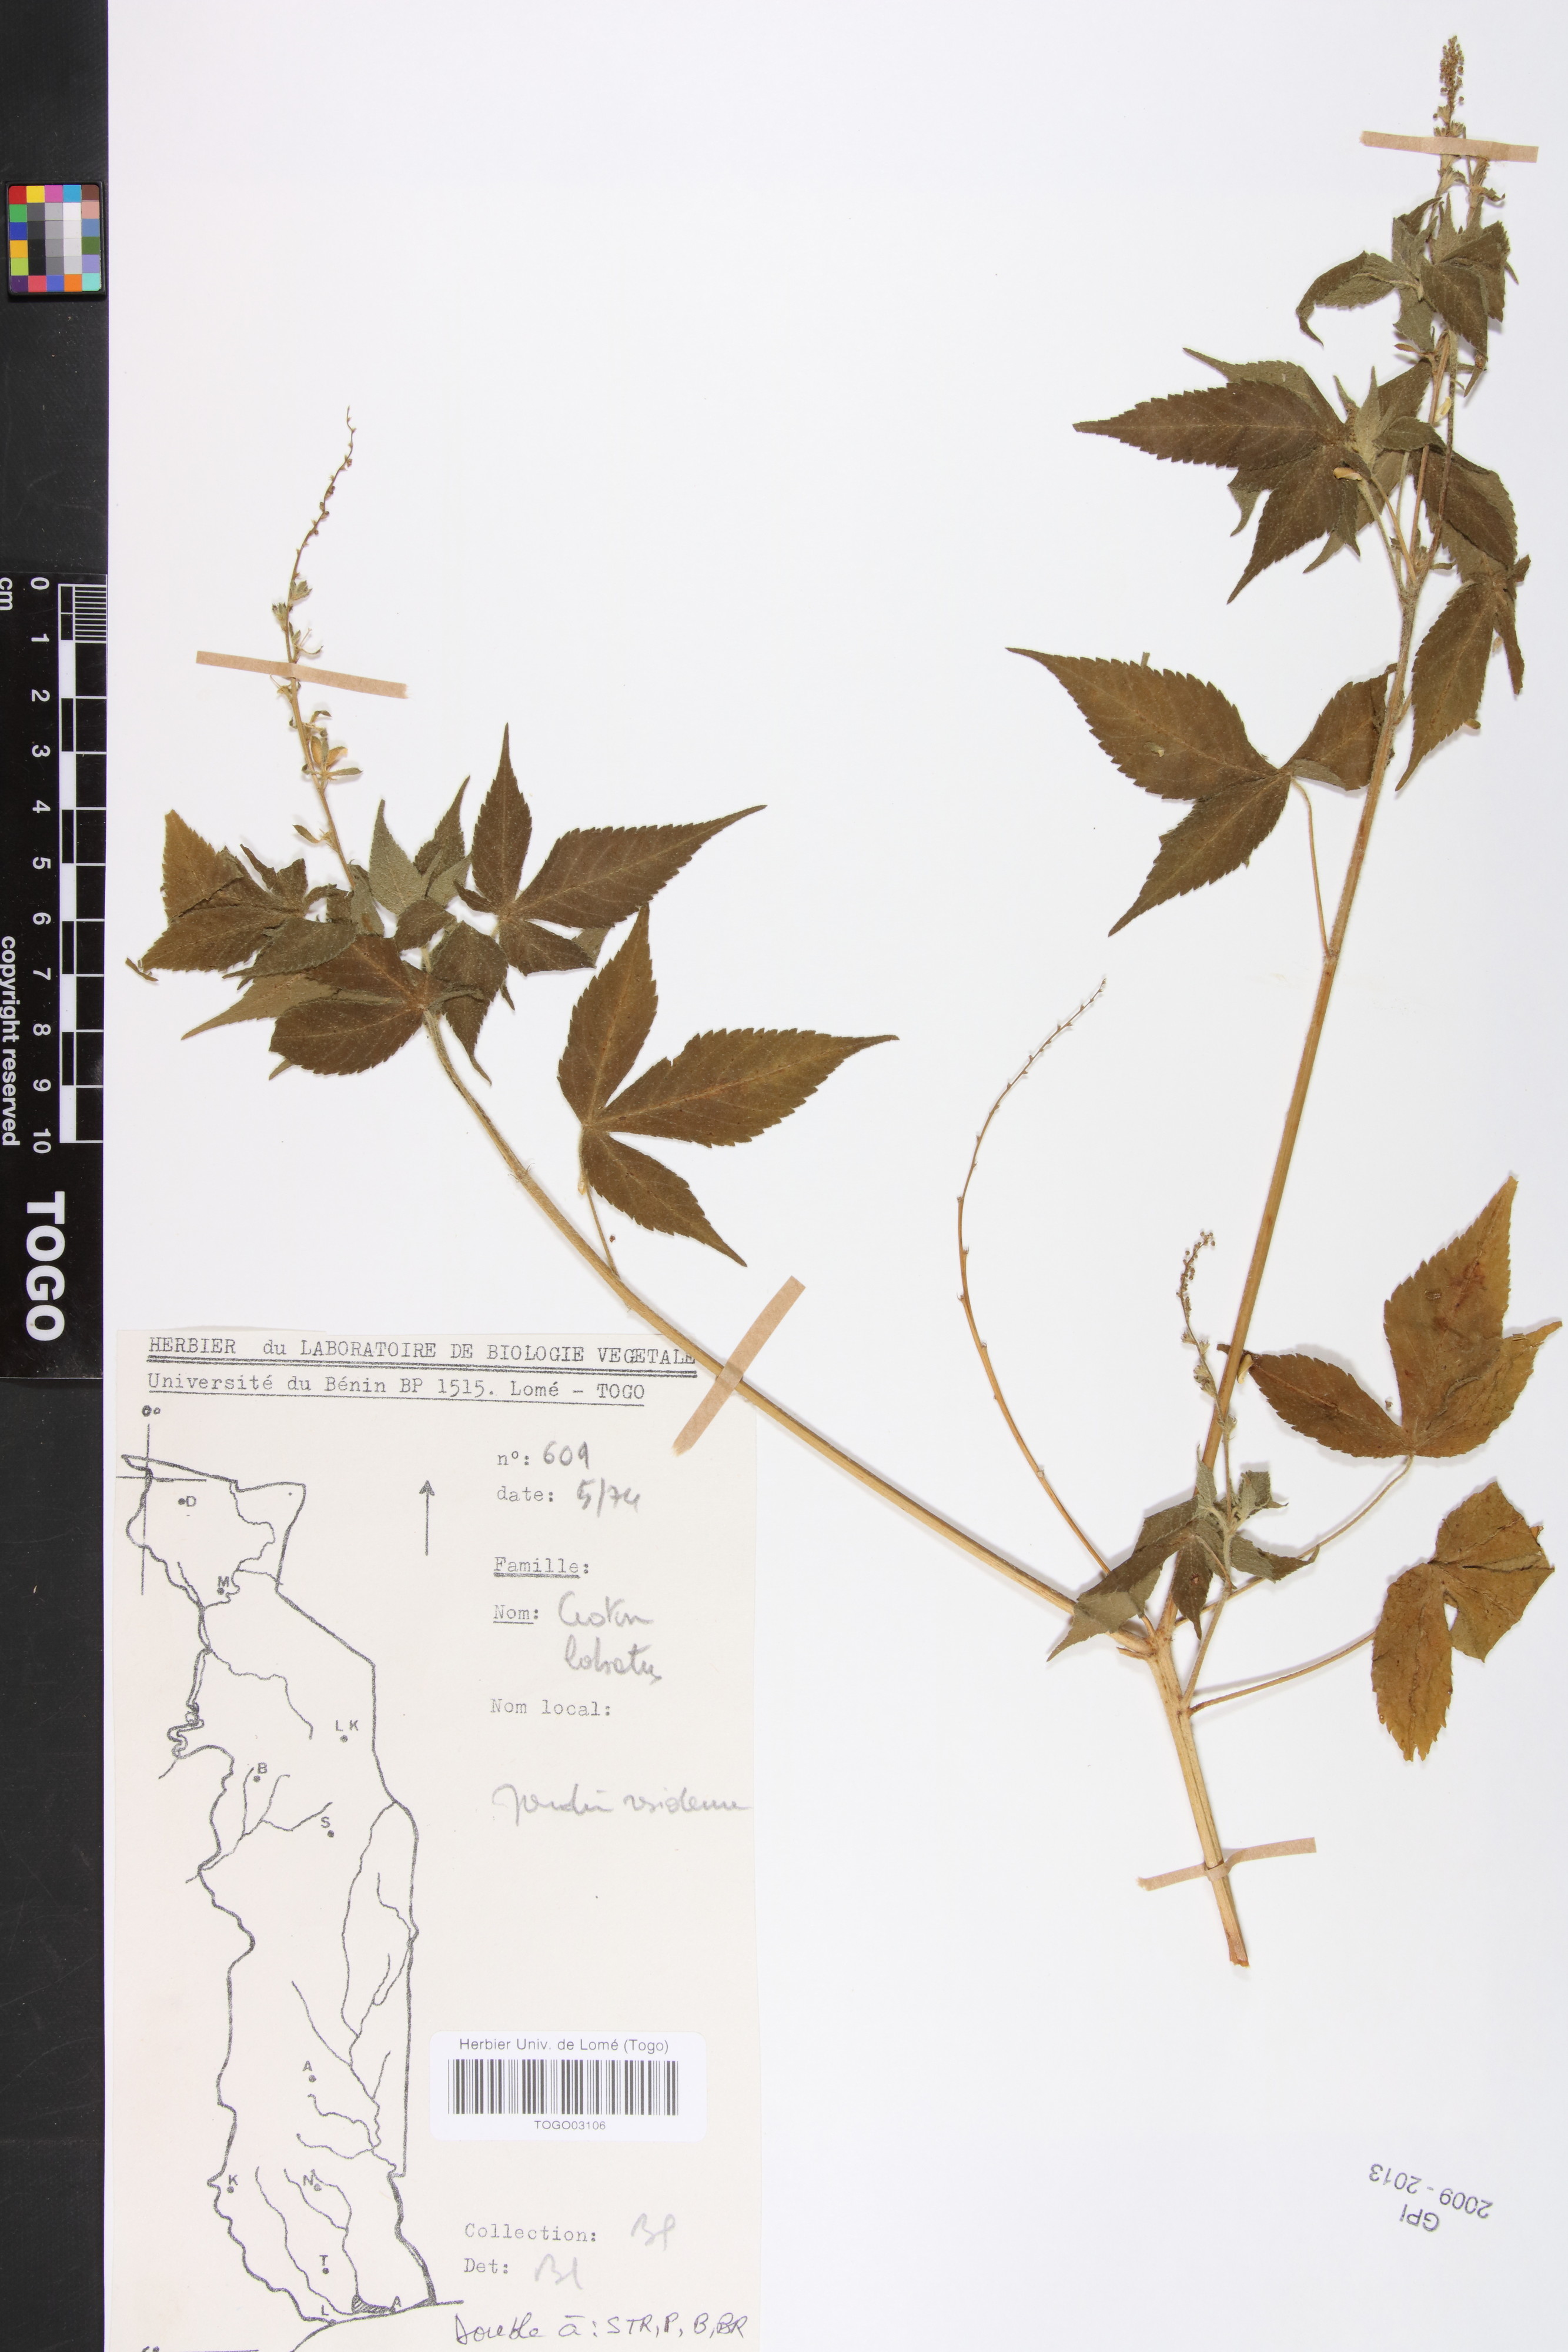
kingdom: Plantae
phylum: Tracheophyta
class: Magnoliopsida
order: Malpighiales
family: Euphorbiaceae
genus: Astraea
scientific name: Astraea lobata
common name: Lobed croton
